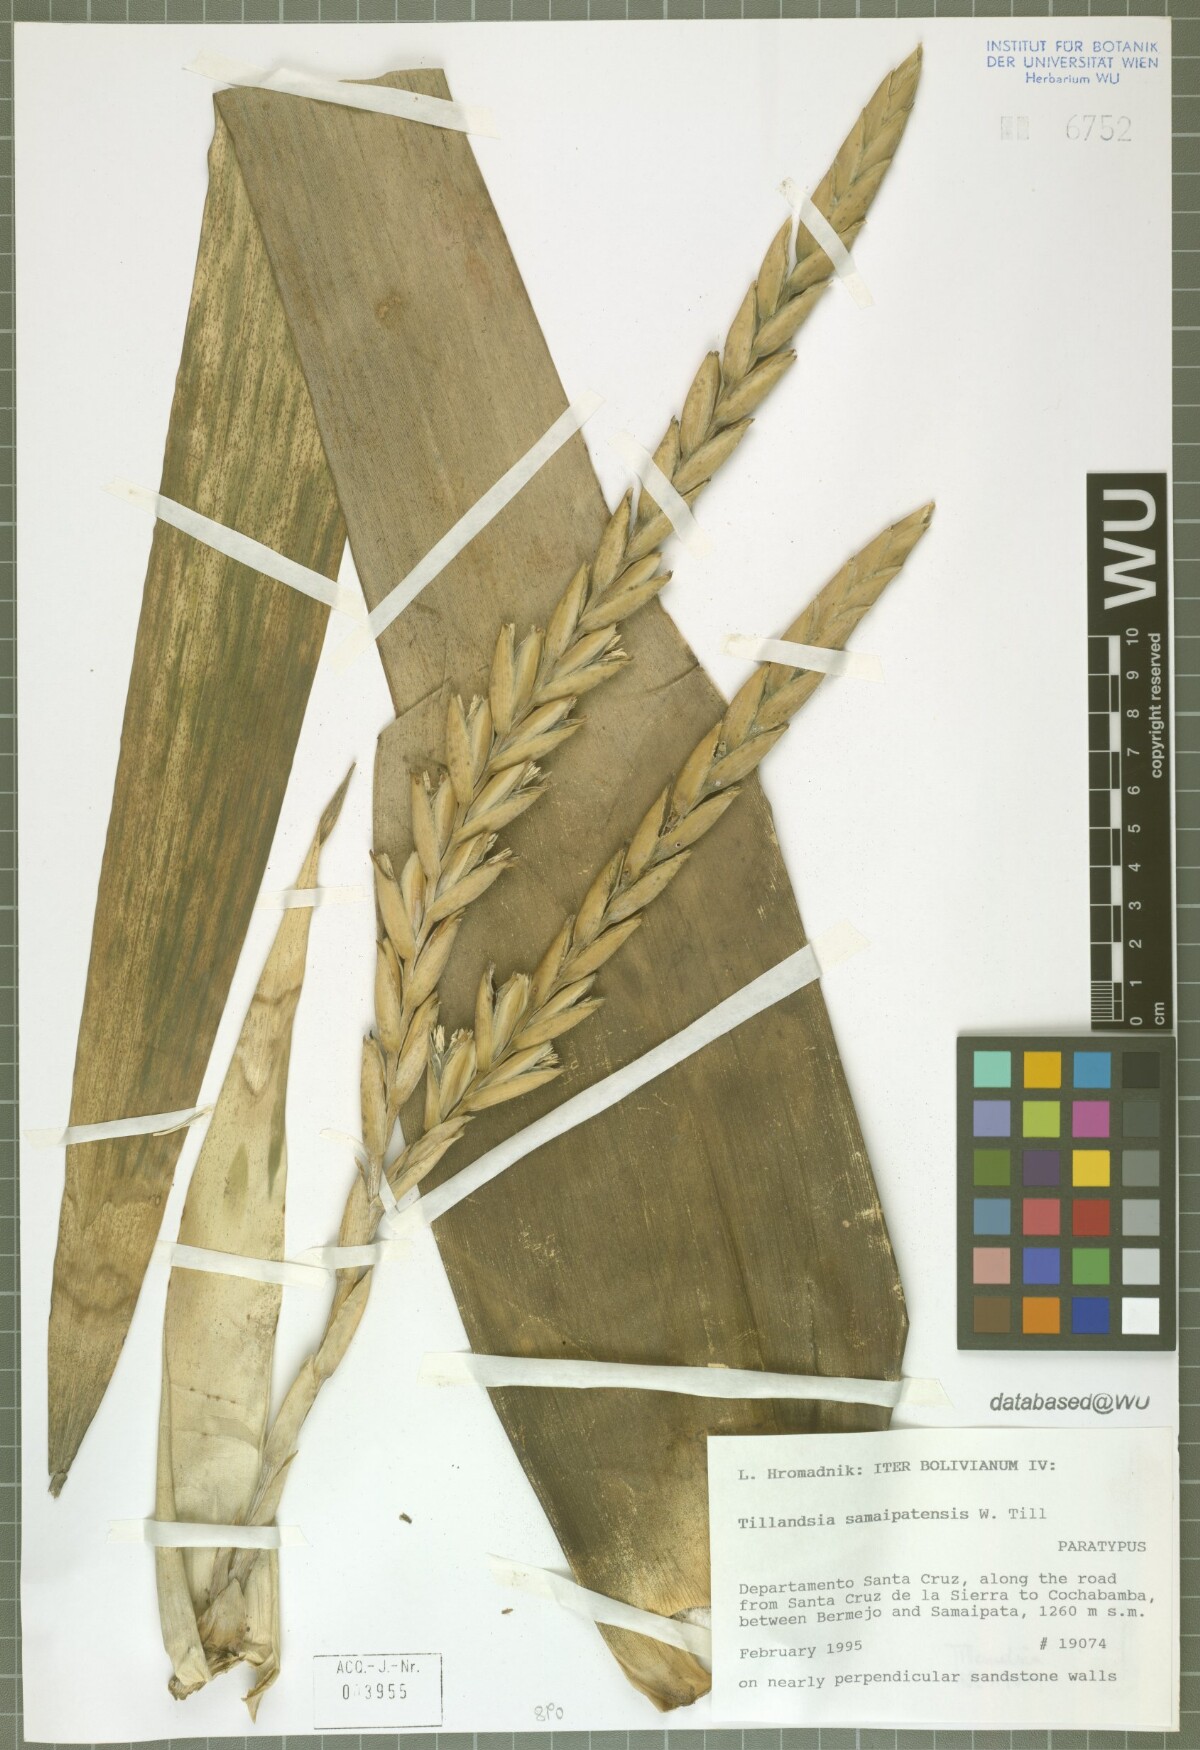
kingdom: Plantae
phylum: Tracheophyta
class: Liliopsida
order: Poales
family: Bromeliaceae
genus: Tillandsia
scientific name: Tillandsia samaipatensis
